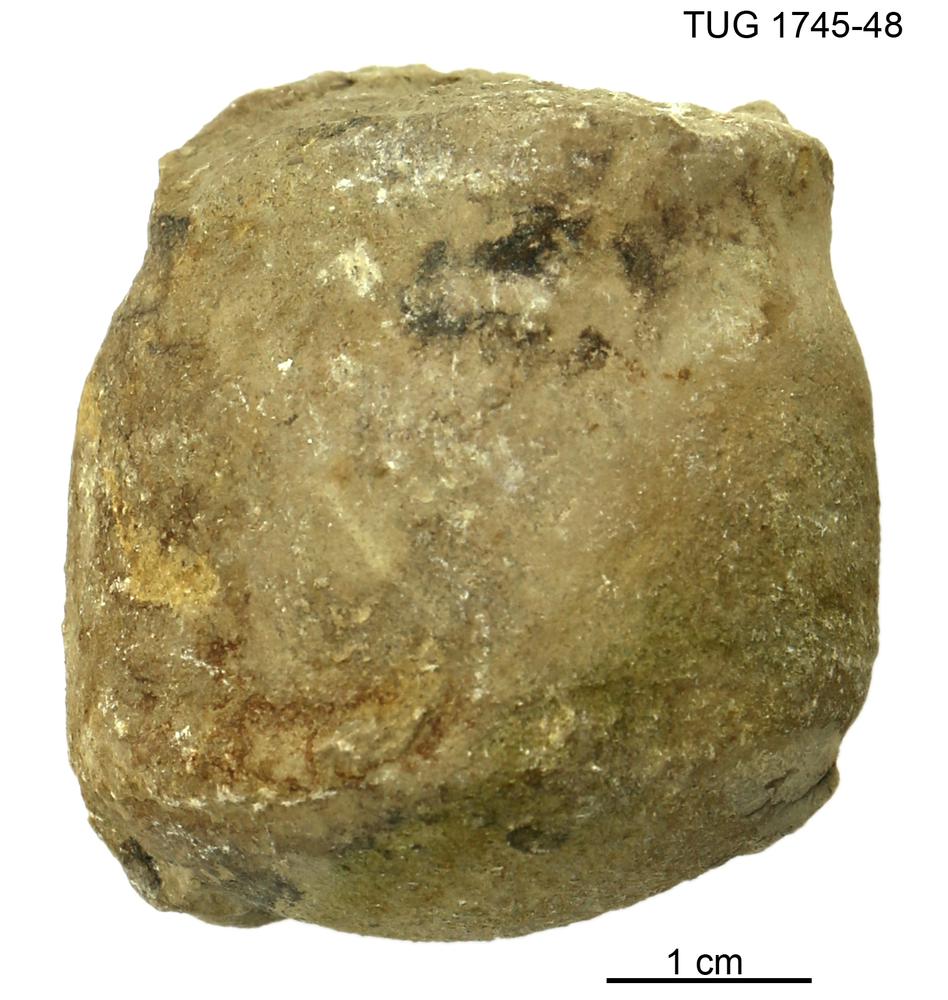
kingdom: Animalia
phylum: Mollusca
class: Cephalopoda
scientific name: Cephalopoda
